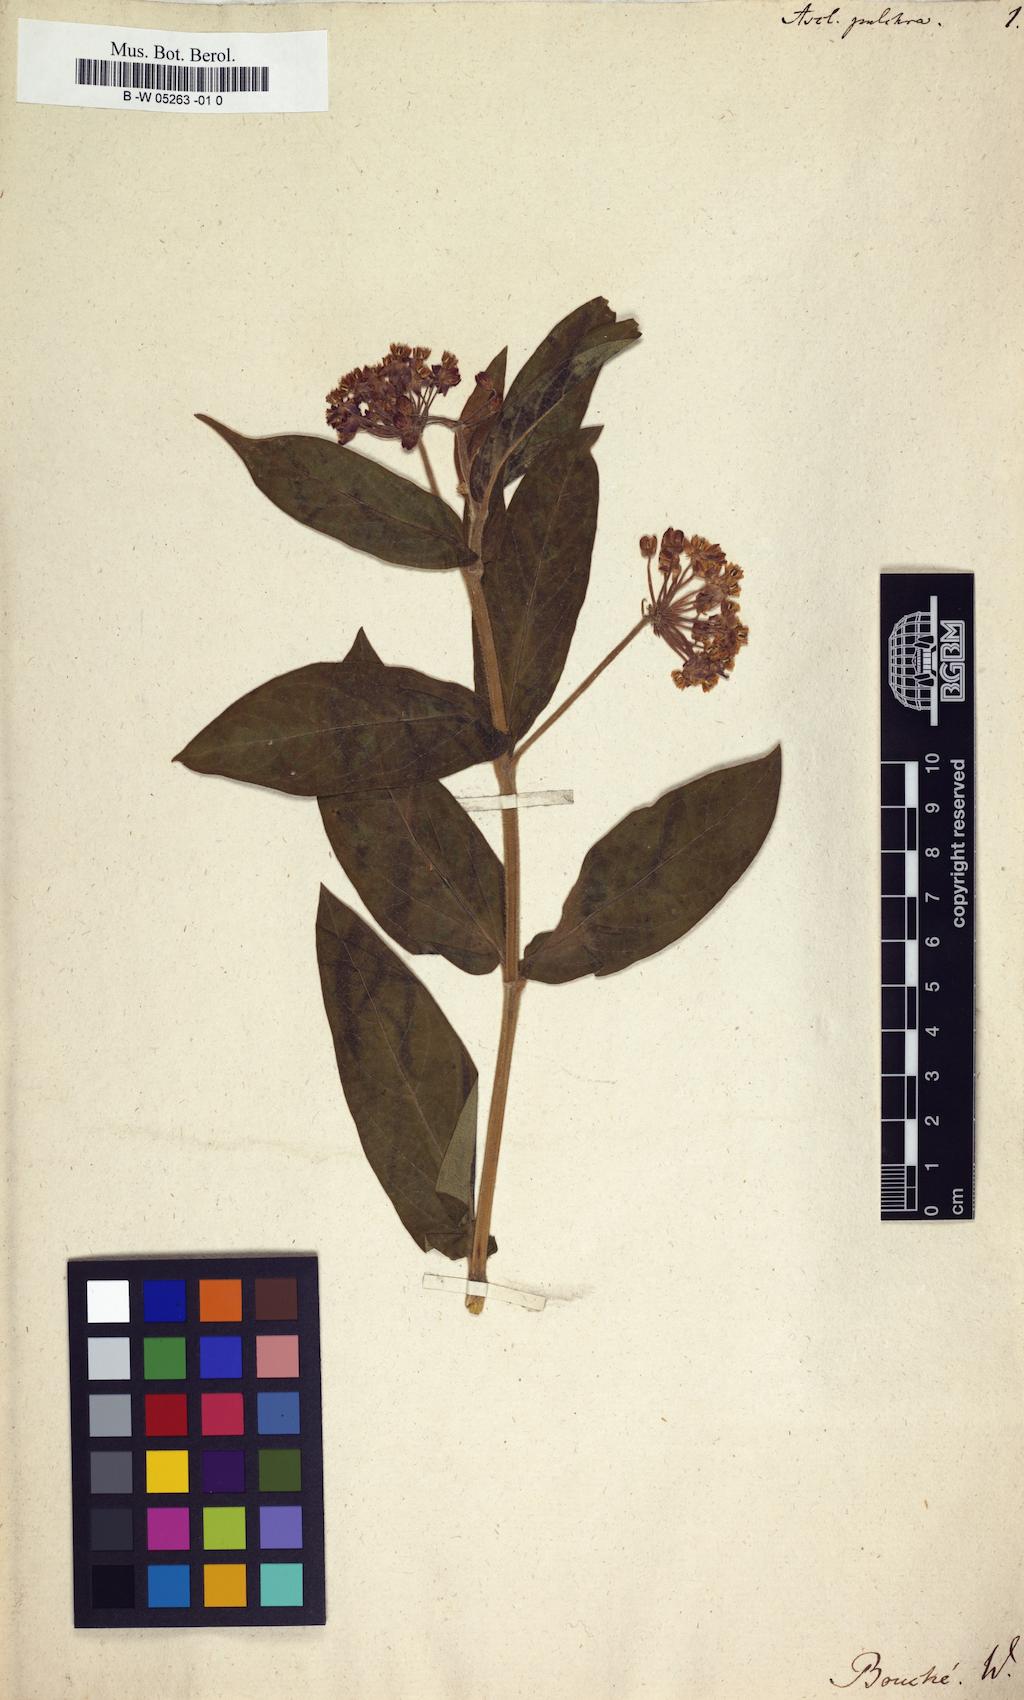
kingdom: Plantae
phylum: Tracheophyta
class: Magnoliopsida
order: Gentianales
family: Apocynaceae
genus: Asclepias
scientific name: Asclepias incarnata
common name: Swamp milkweed
